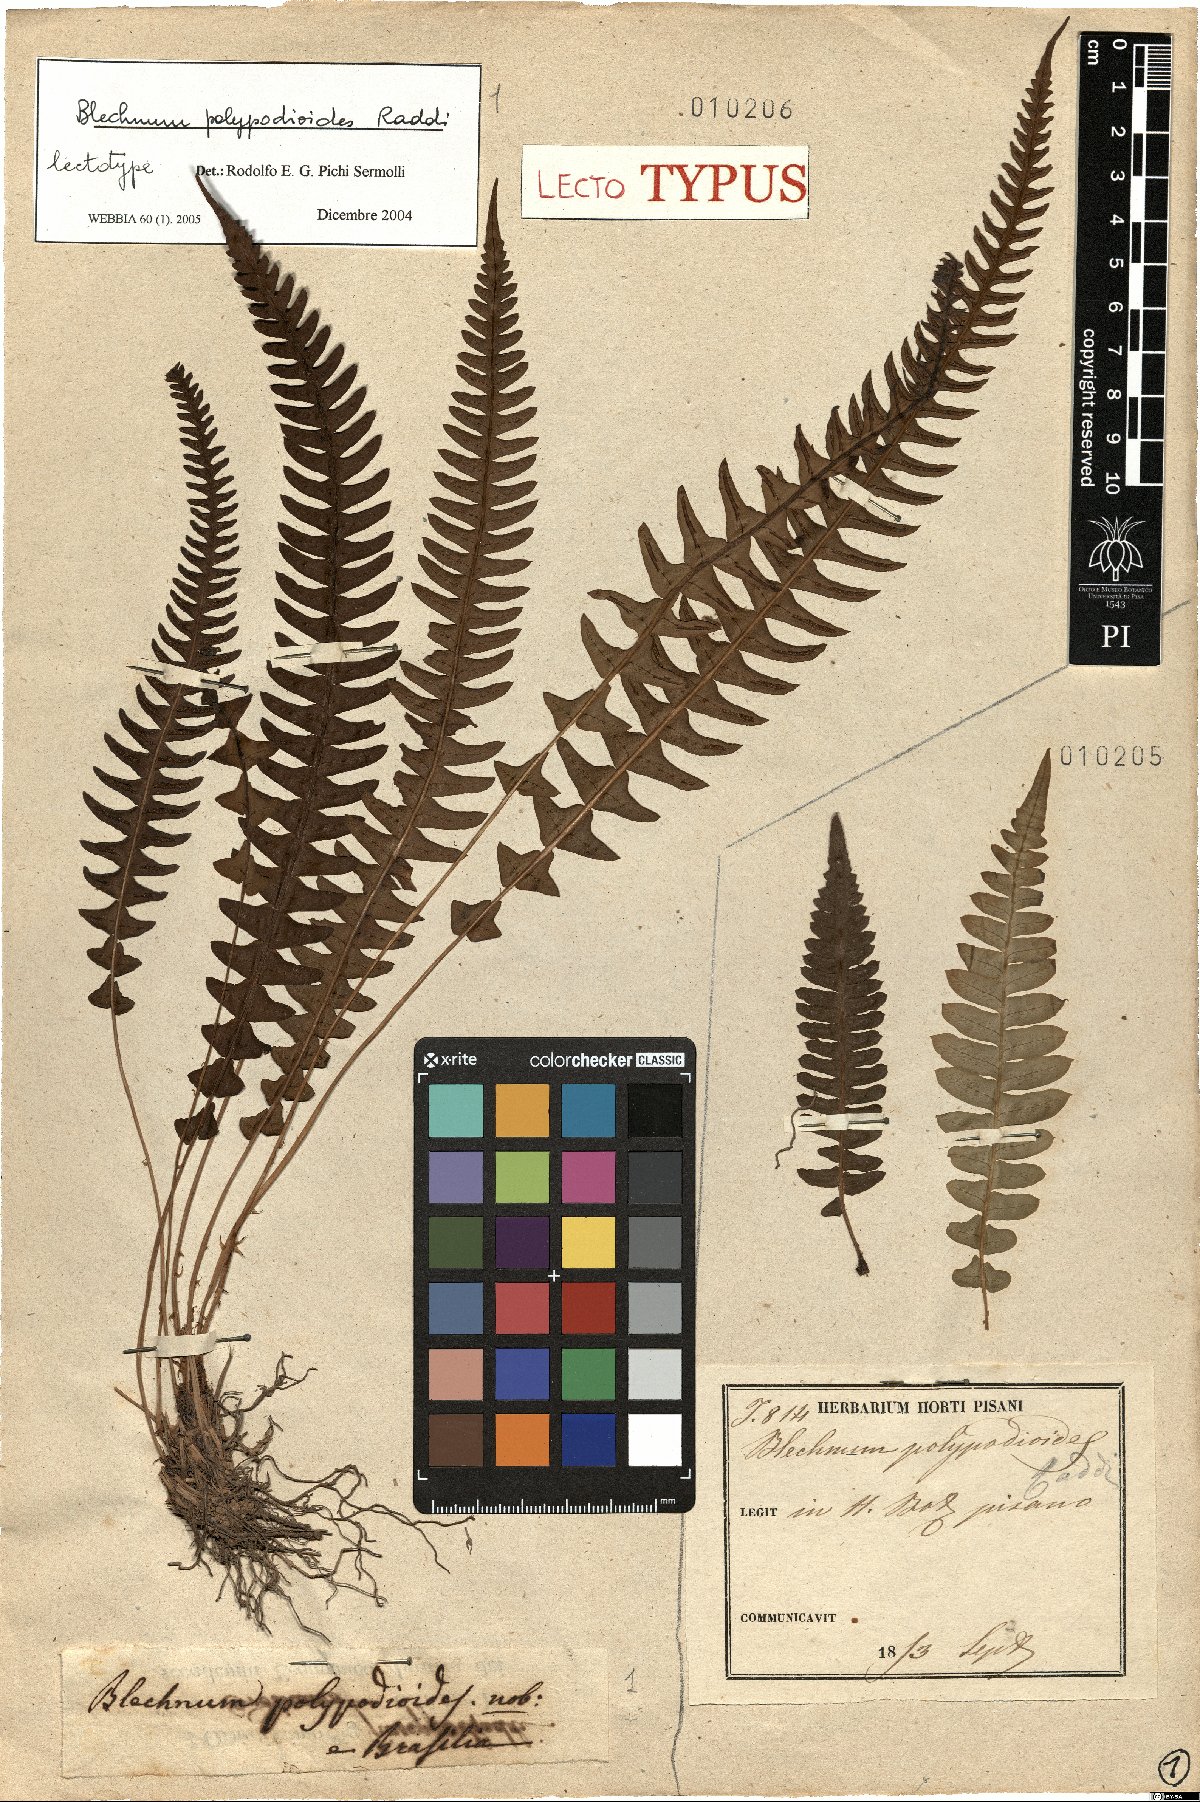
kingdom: Plantae
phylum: Tracheophyta
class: Polypodiopsida
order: Polypodiales
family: Blechnaceae
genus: Blechnum
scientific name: Blechnum polypodioides
